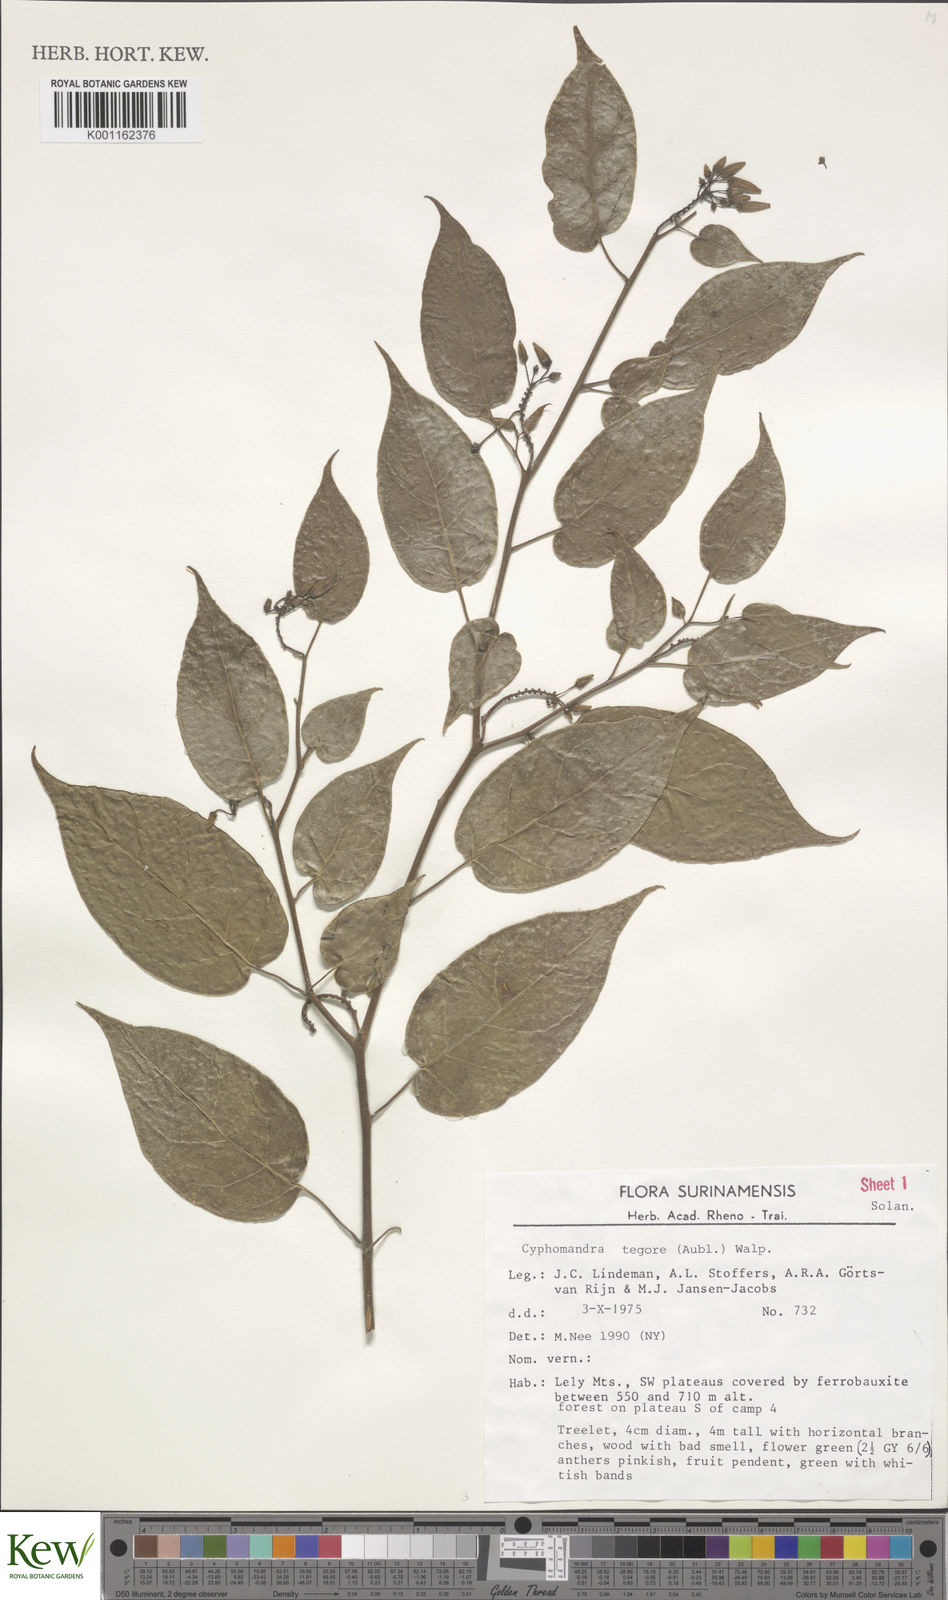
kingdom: Plantae
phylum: Tracheophyta
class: Magnoliopsida
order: Solanales
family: Solanaceae
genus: Solanum
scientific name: Solanum tegore
